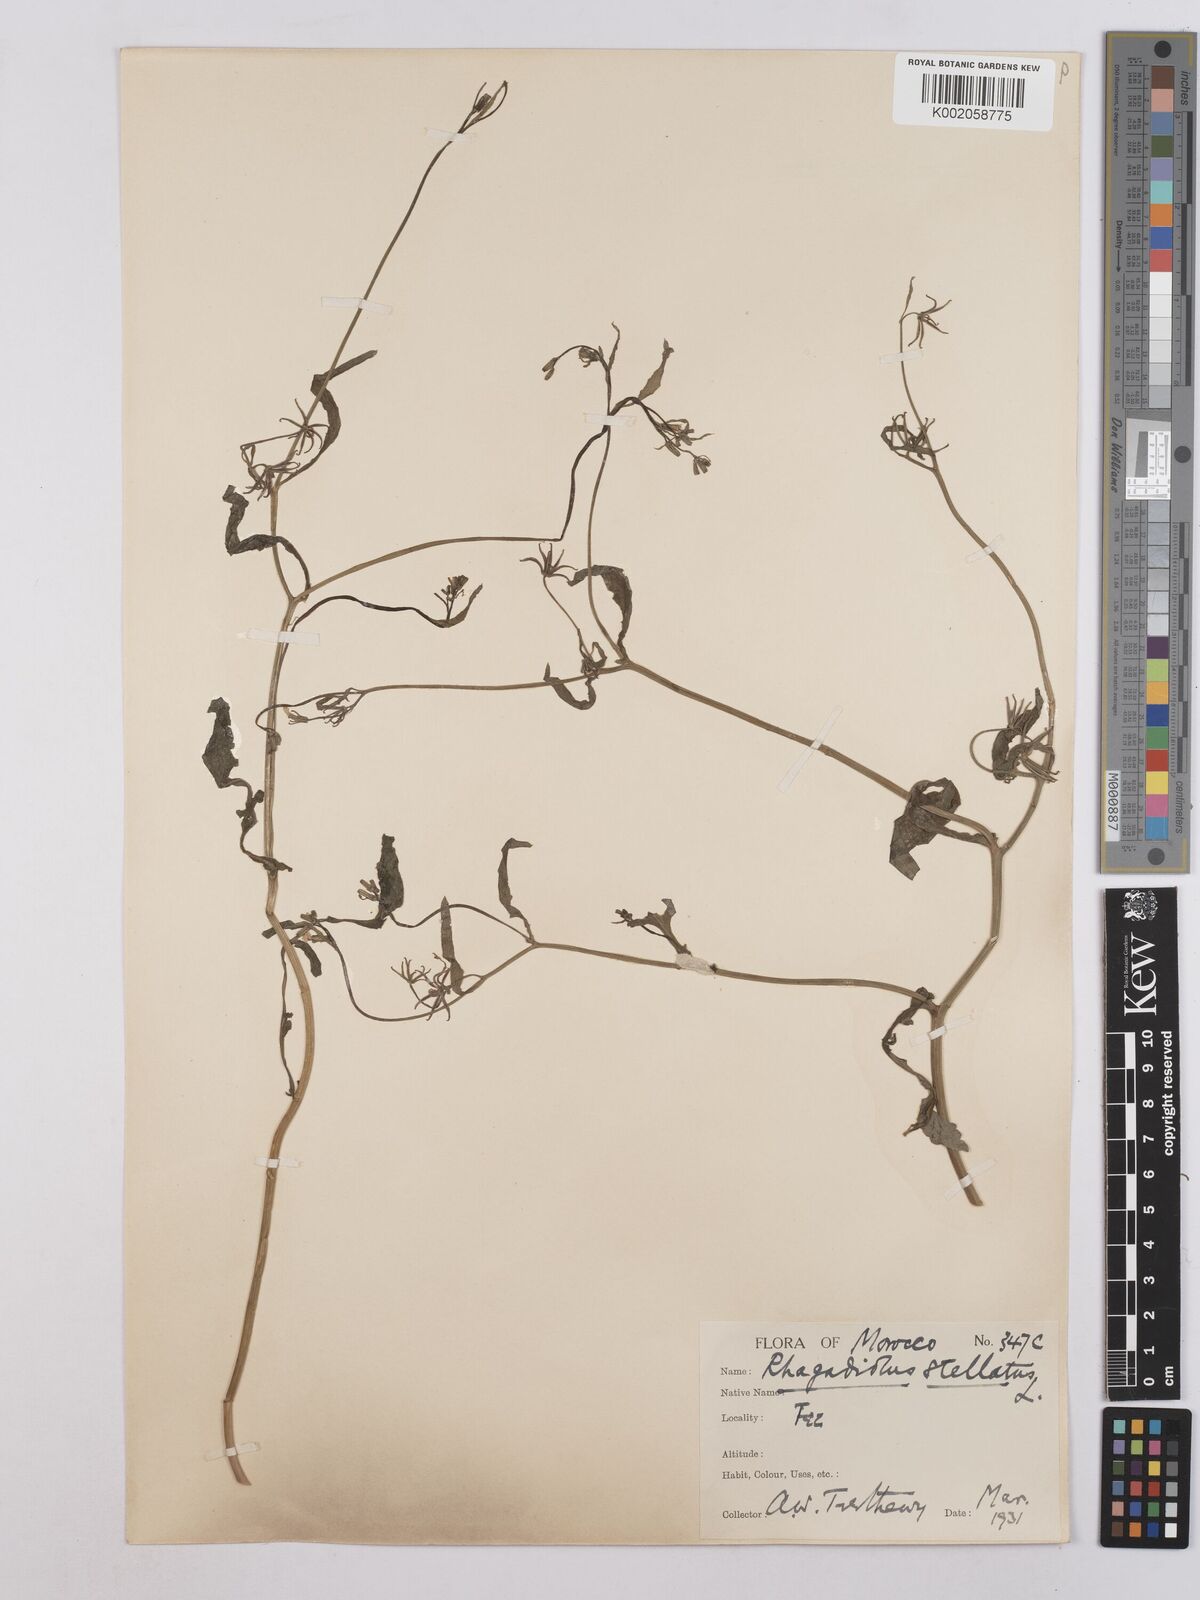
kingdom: Plantae
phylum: Tracheophyta
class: Magnoliopsida
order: Asterales
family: Asteraceae
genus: Rhagadiolus
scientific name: Rhagadiolus stellatus
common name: Star hawkbit
